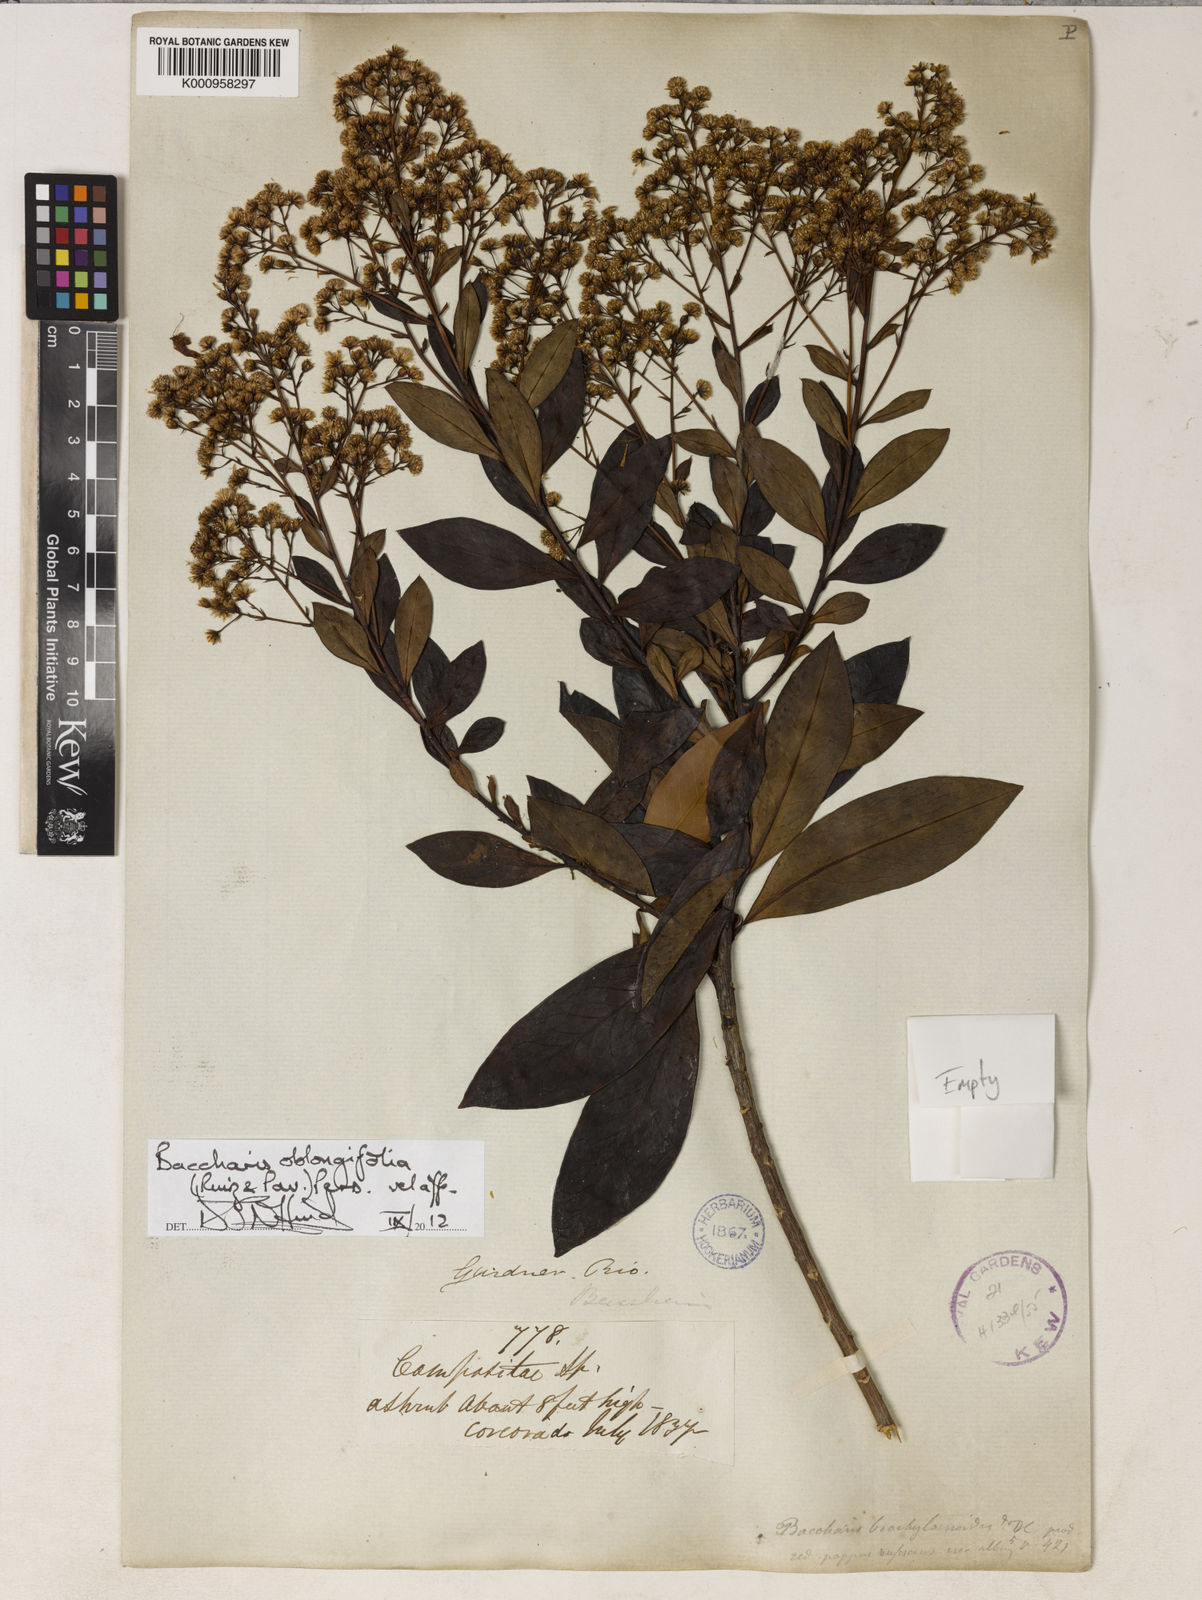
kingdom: Plantae
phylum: Tracheophyta
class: Magnoliopsida
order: Asterales
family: Asteraceae
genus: Baccharis
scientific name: Baccharis oblongifolia
